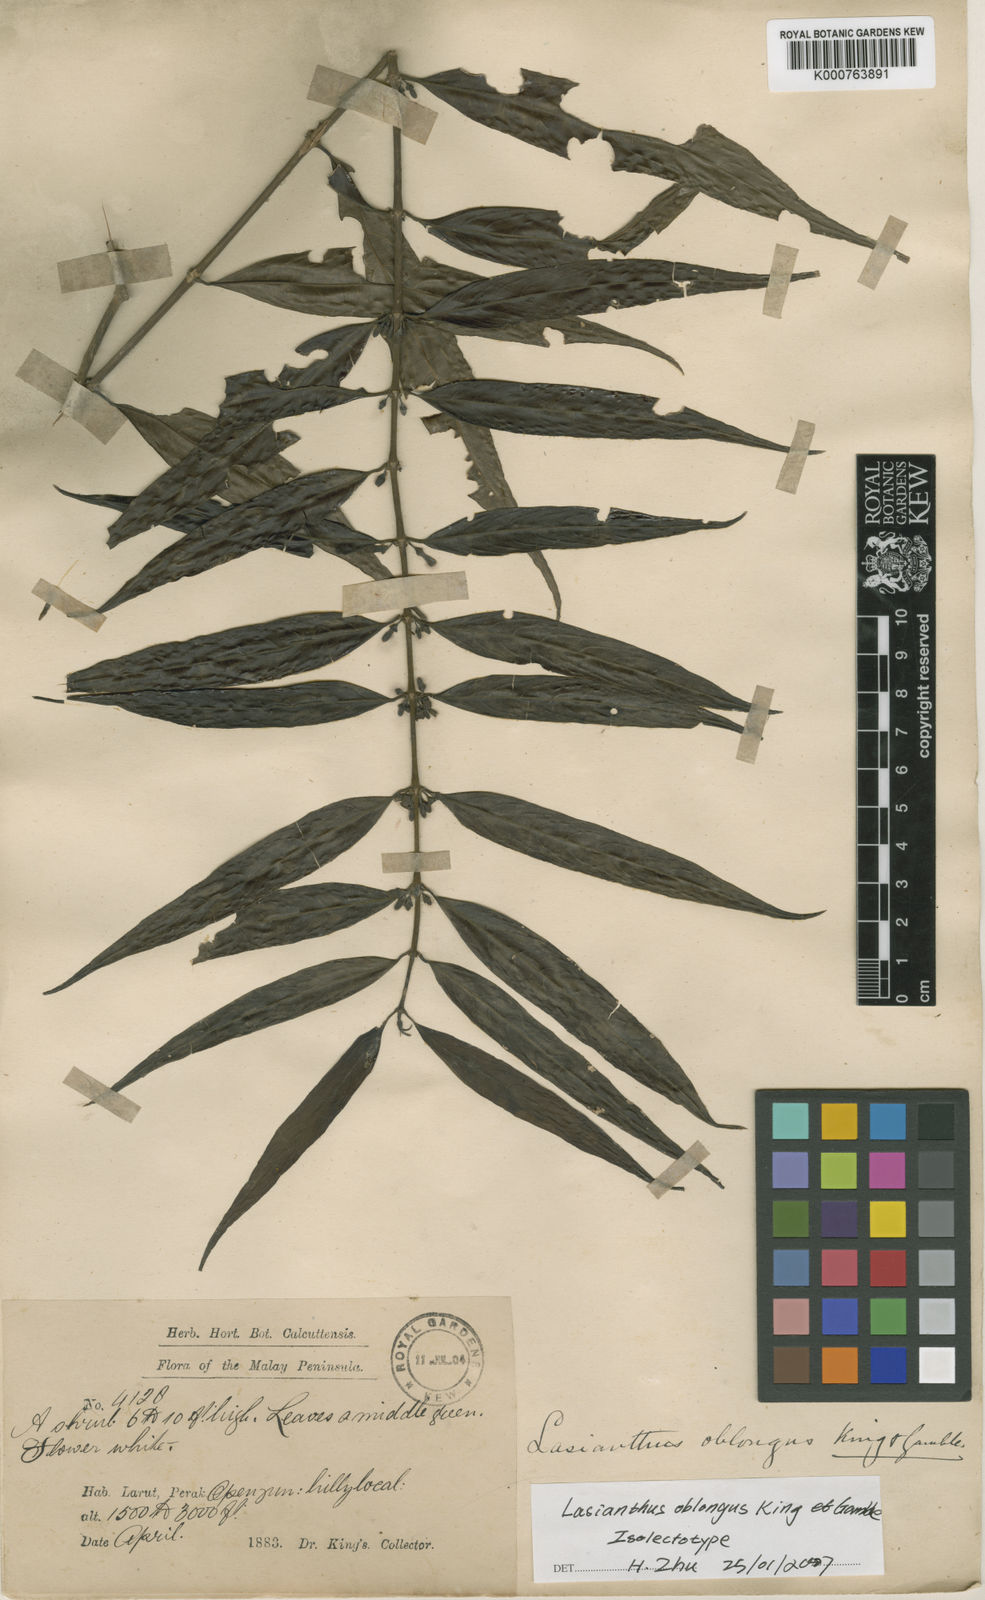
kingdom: Plantae
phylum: Tracheophyta
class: Magnoliopsida
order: Gentianales
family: Rubiaceae
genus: Lasianthus
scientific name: Lasianthus oblongus
